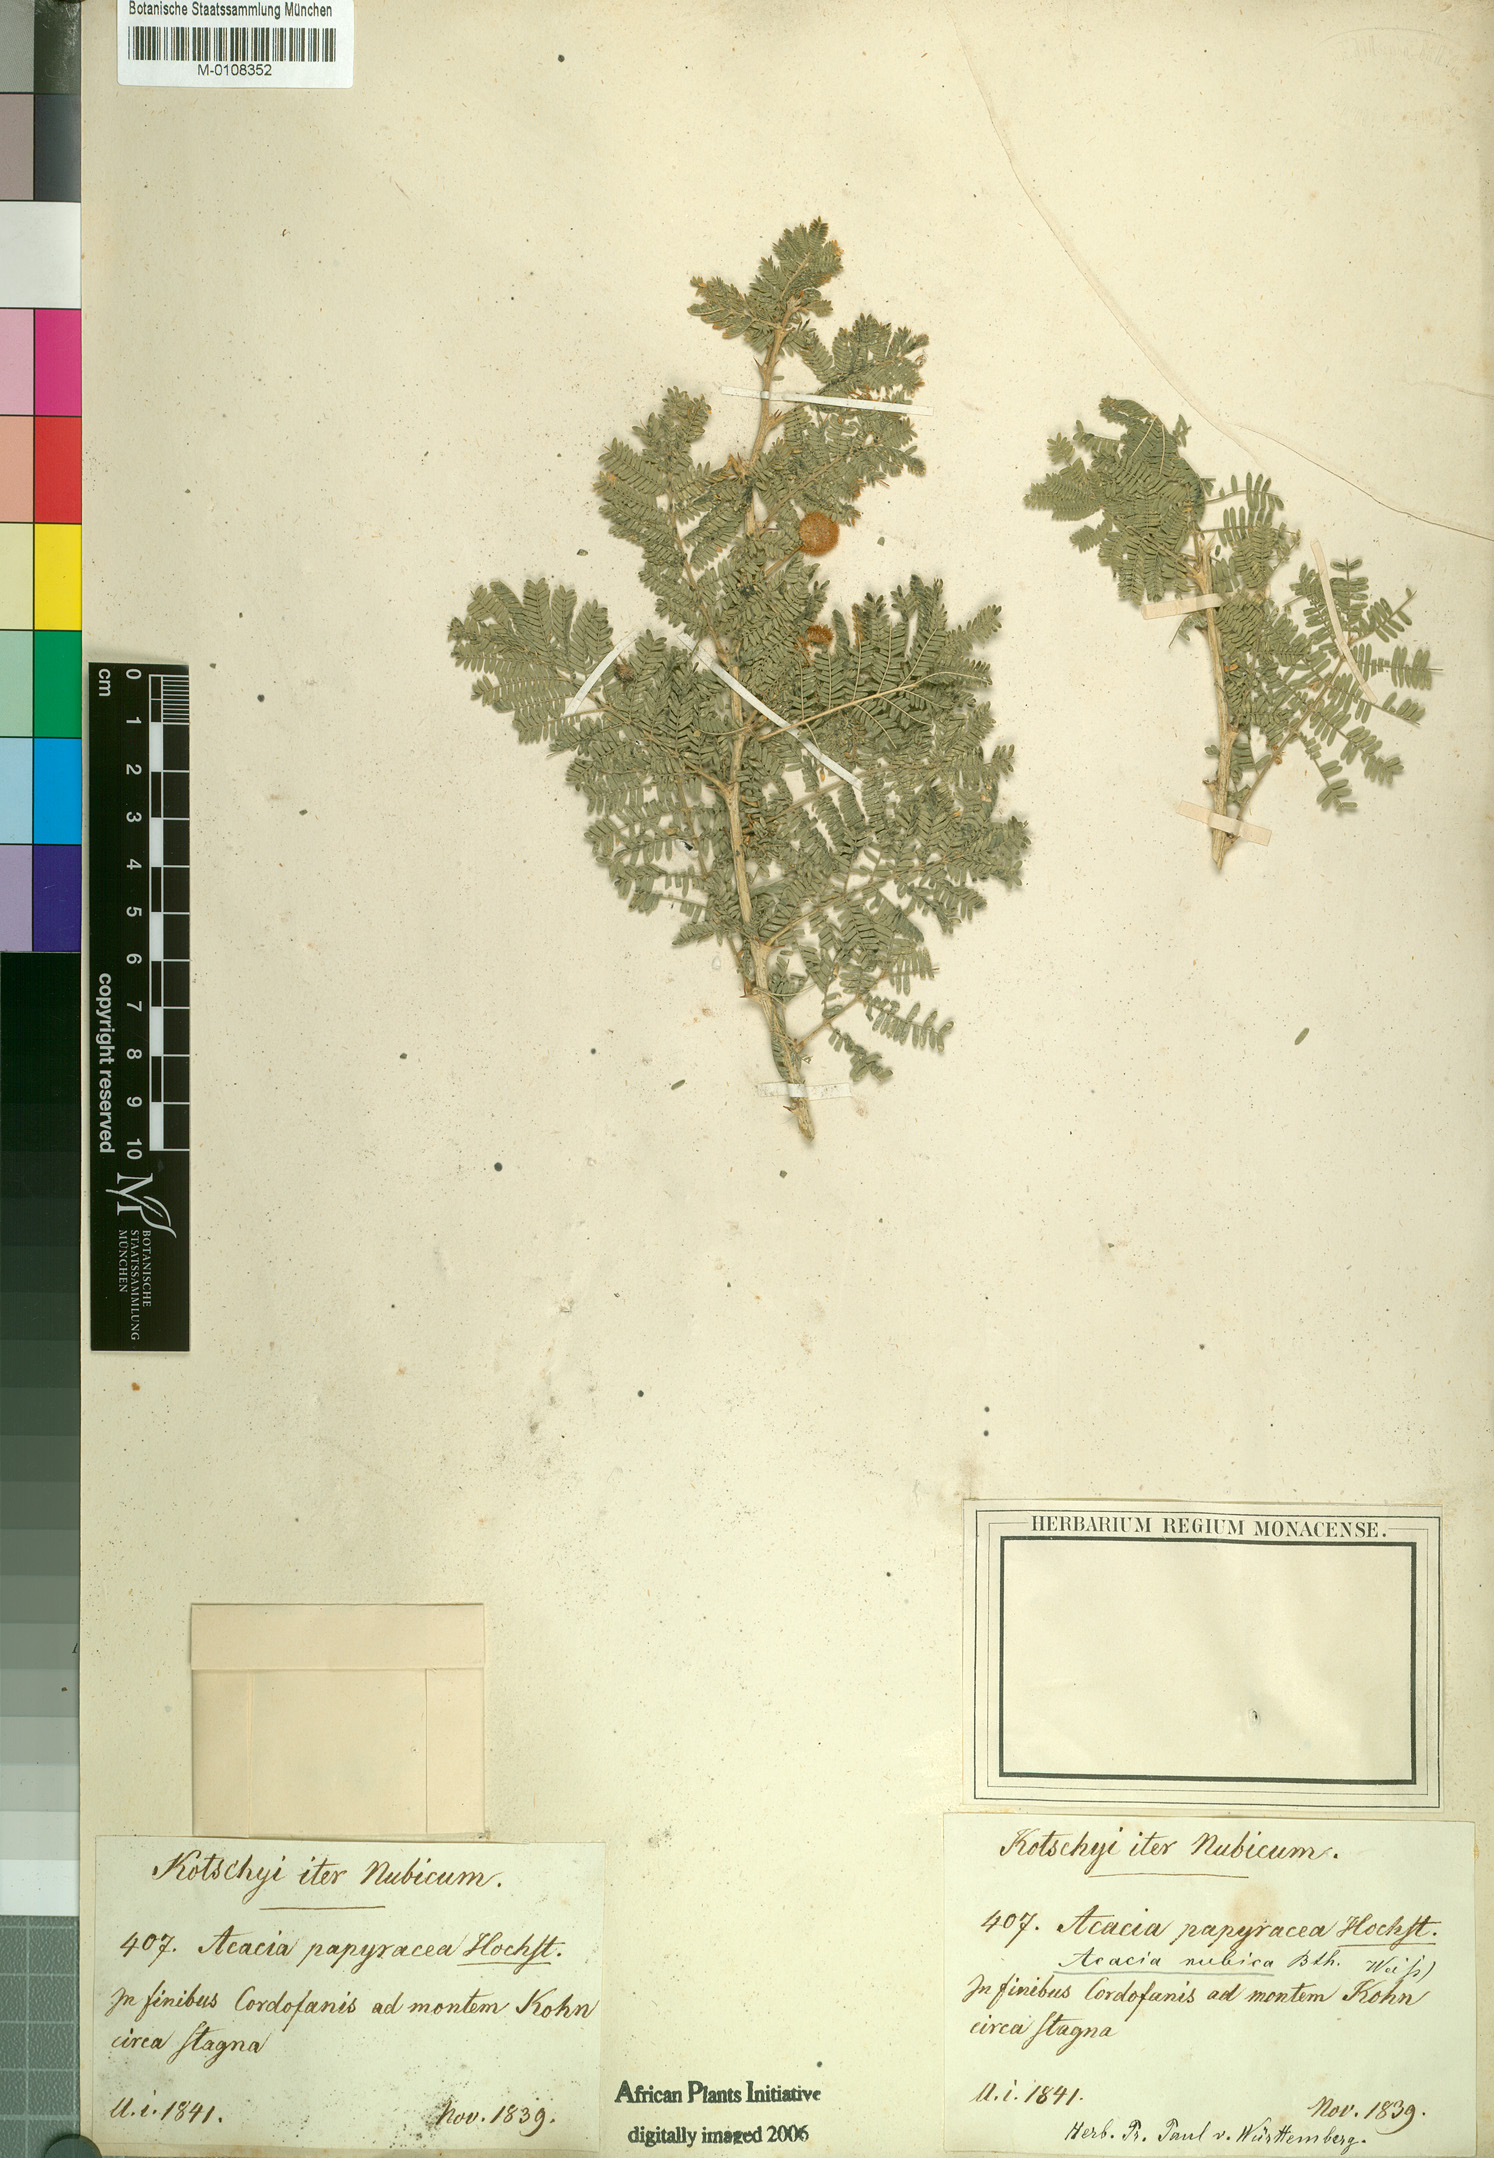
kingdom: Plantae
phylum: Tracheophyta
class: Magnoliopsida
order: Fabales
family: Fabaceae
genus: Vachellia
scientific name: Vachellia oerfota
